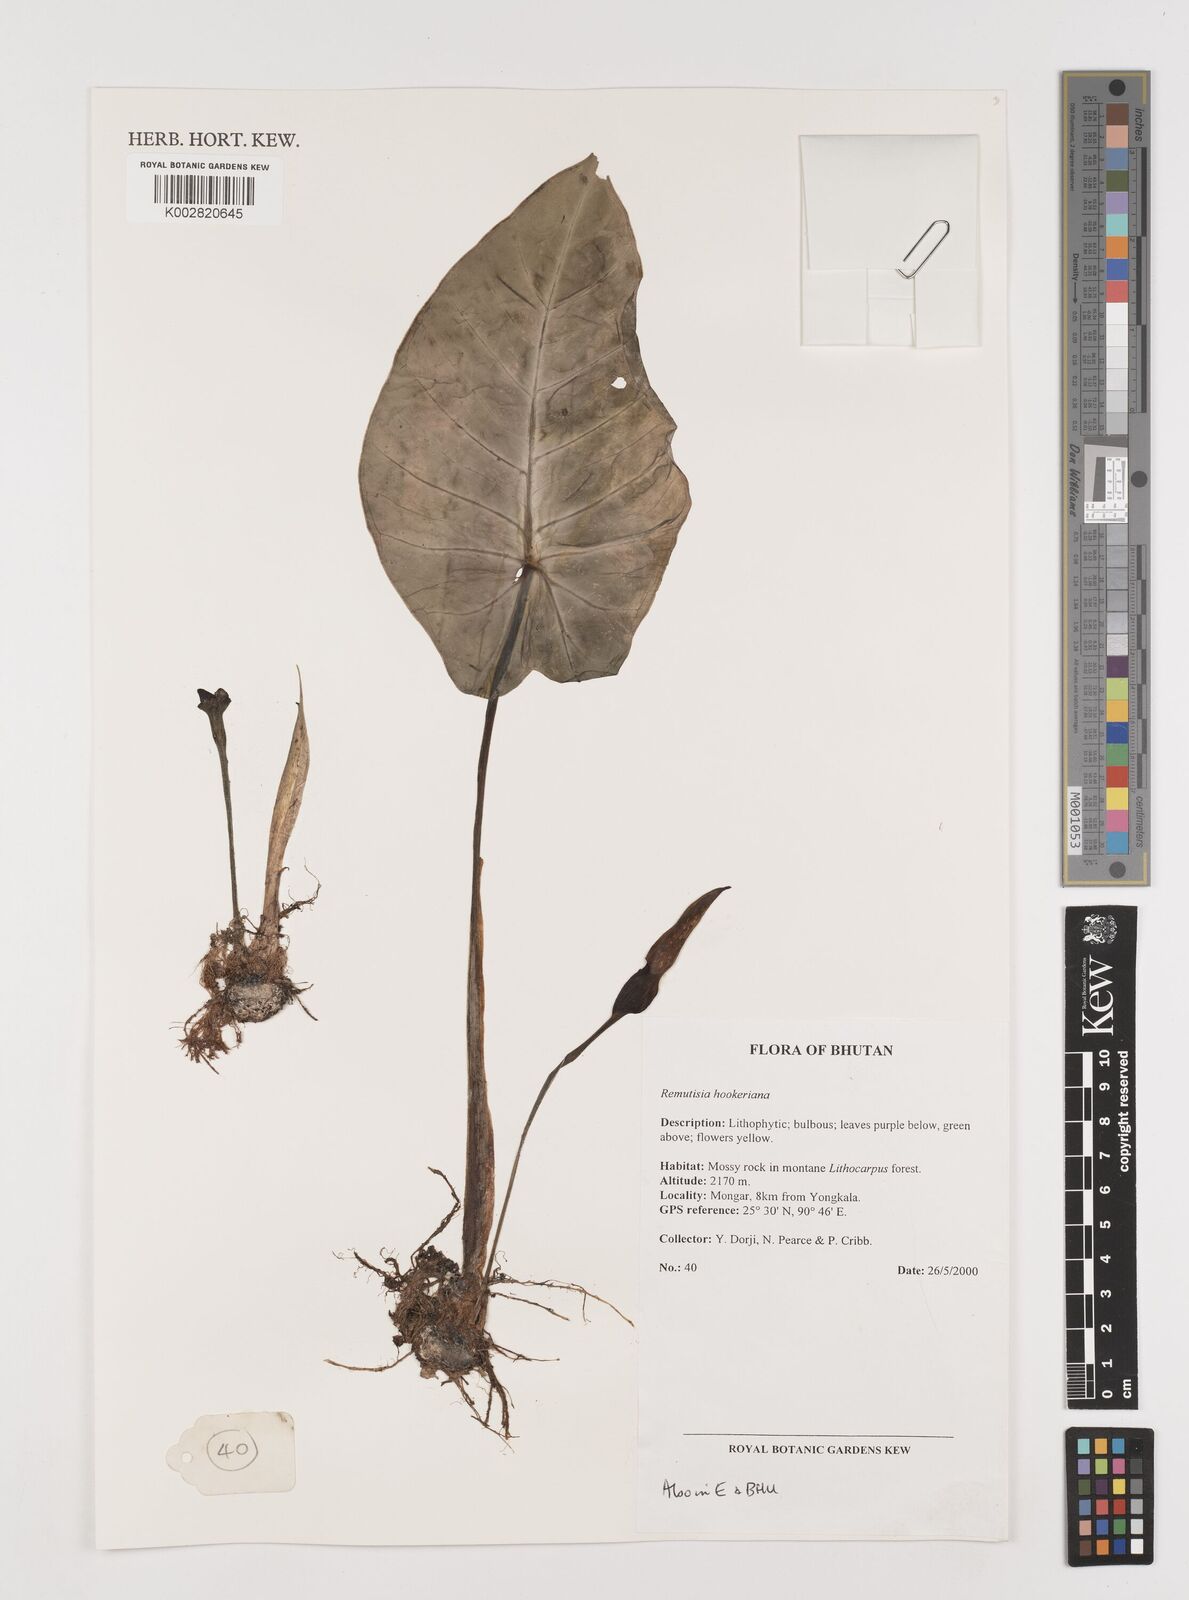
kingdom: Plantae
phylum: Tracheophyta
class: Liliopsida
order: Alismatales
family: Araceae
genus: Remusatia
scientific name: Remusatia hookeriana
